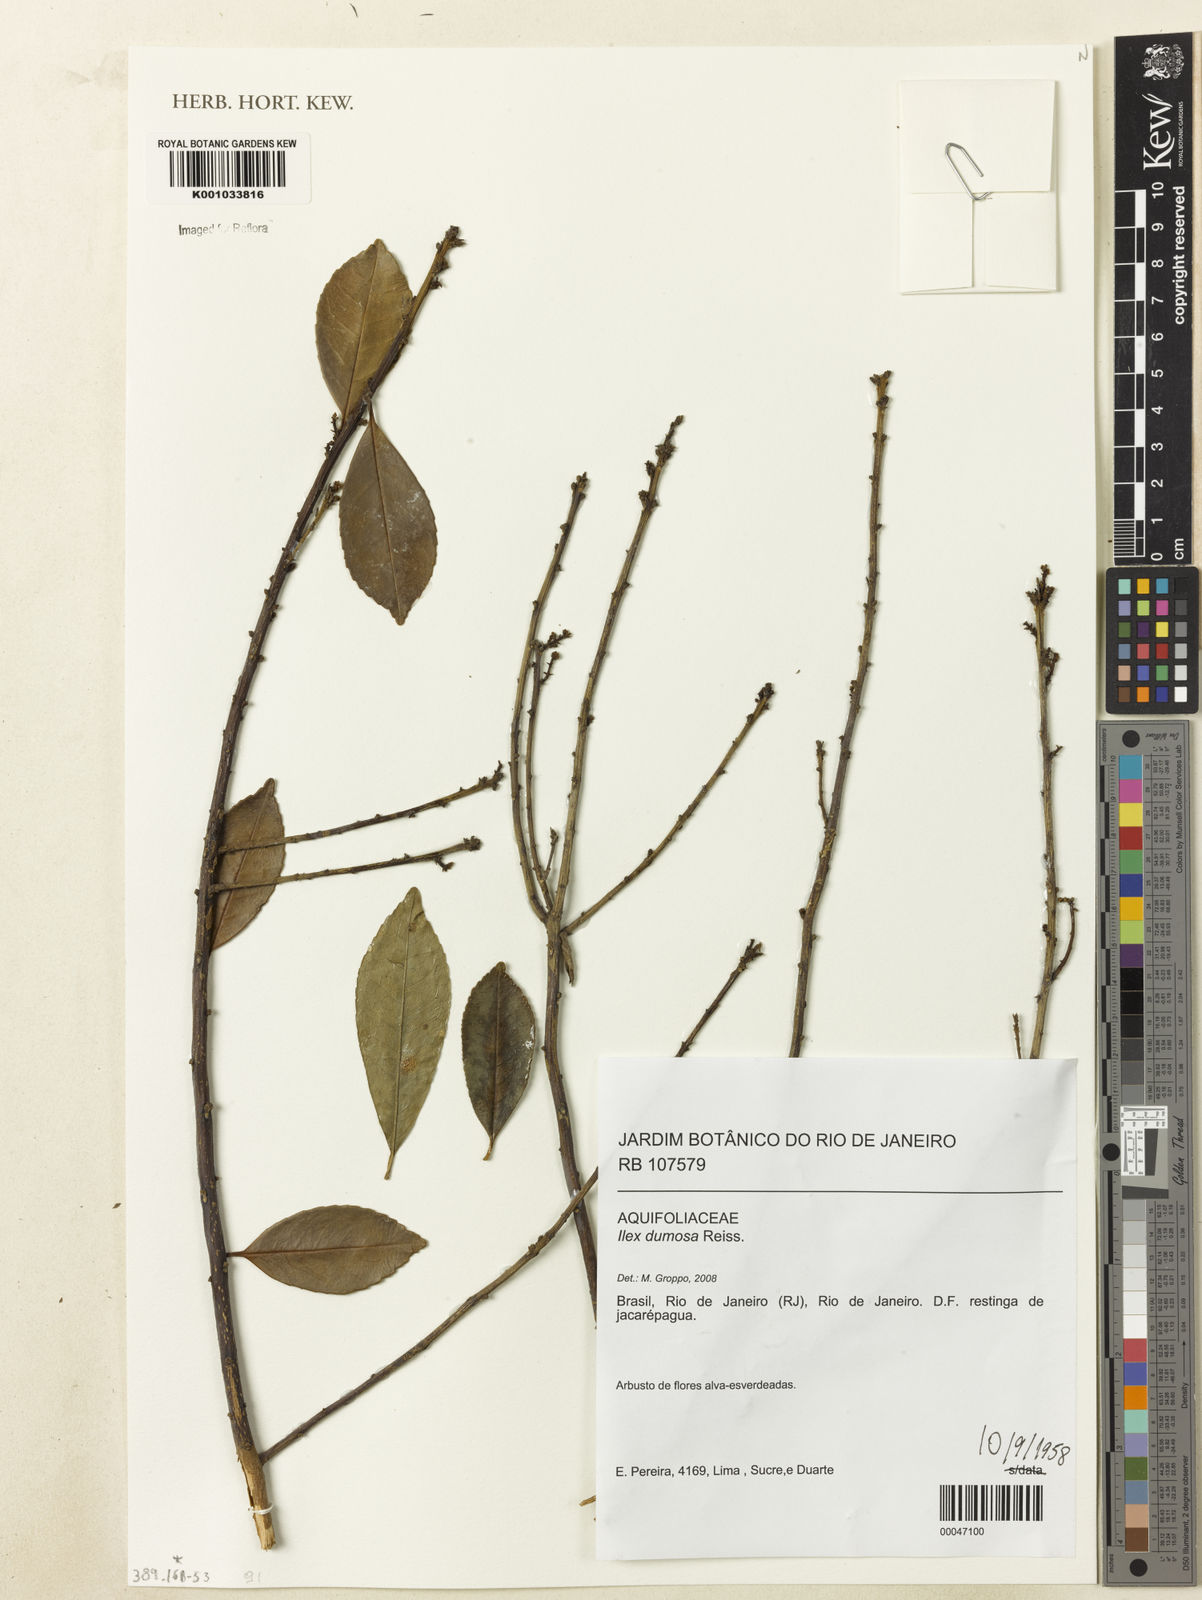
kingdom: Plantae
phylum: Tracheophyta
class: Magnoliopsida
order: Aquifoliales
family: Aquifoliaceae
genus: Ilex
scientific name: Ilex dumosa
